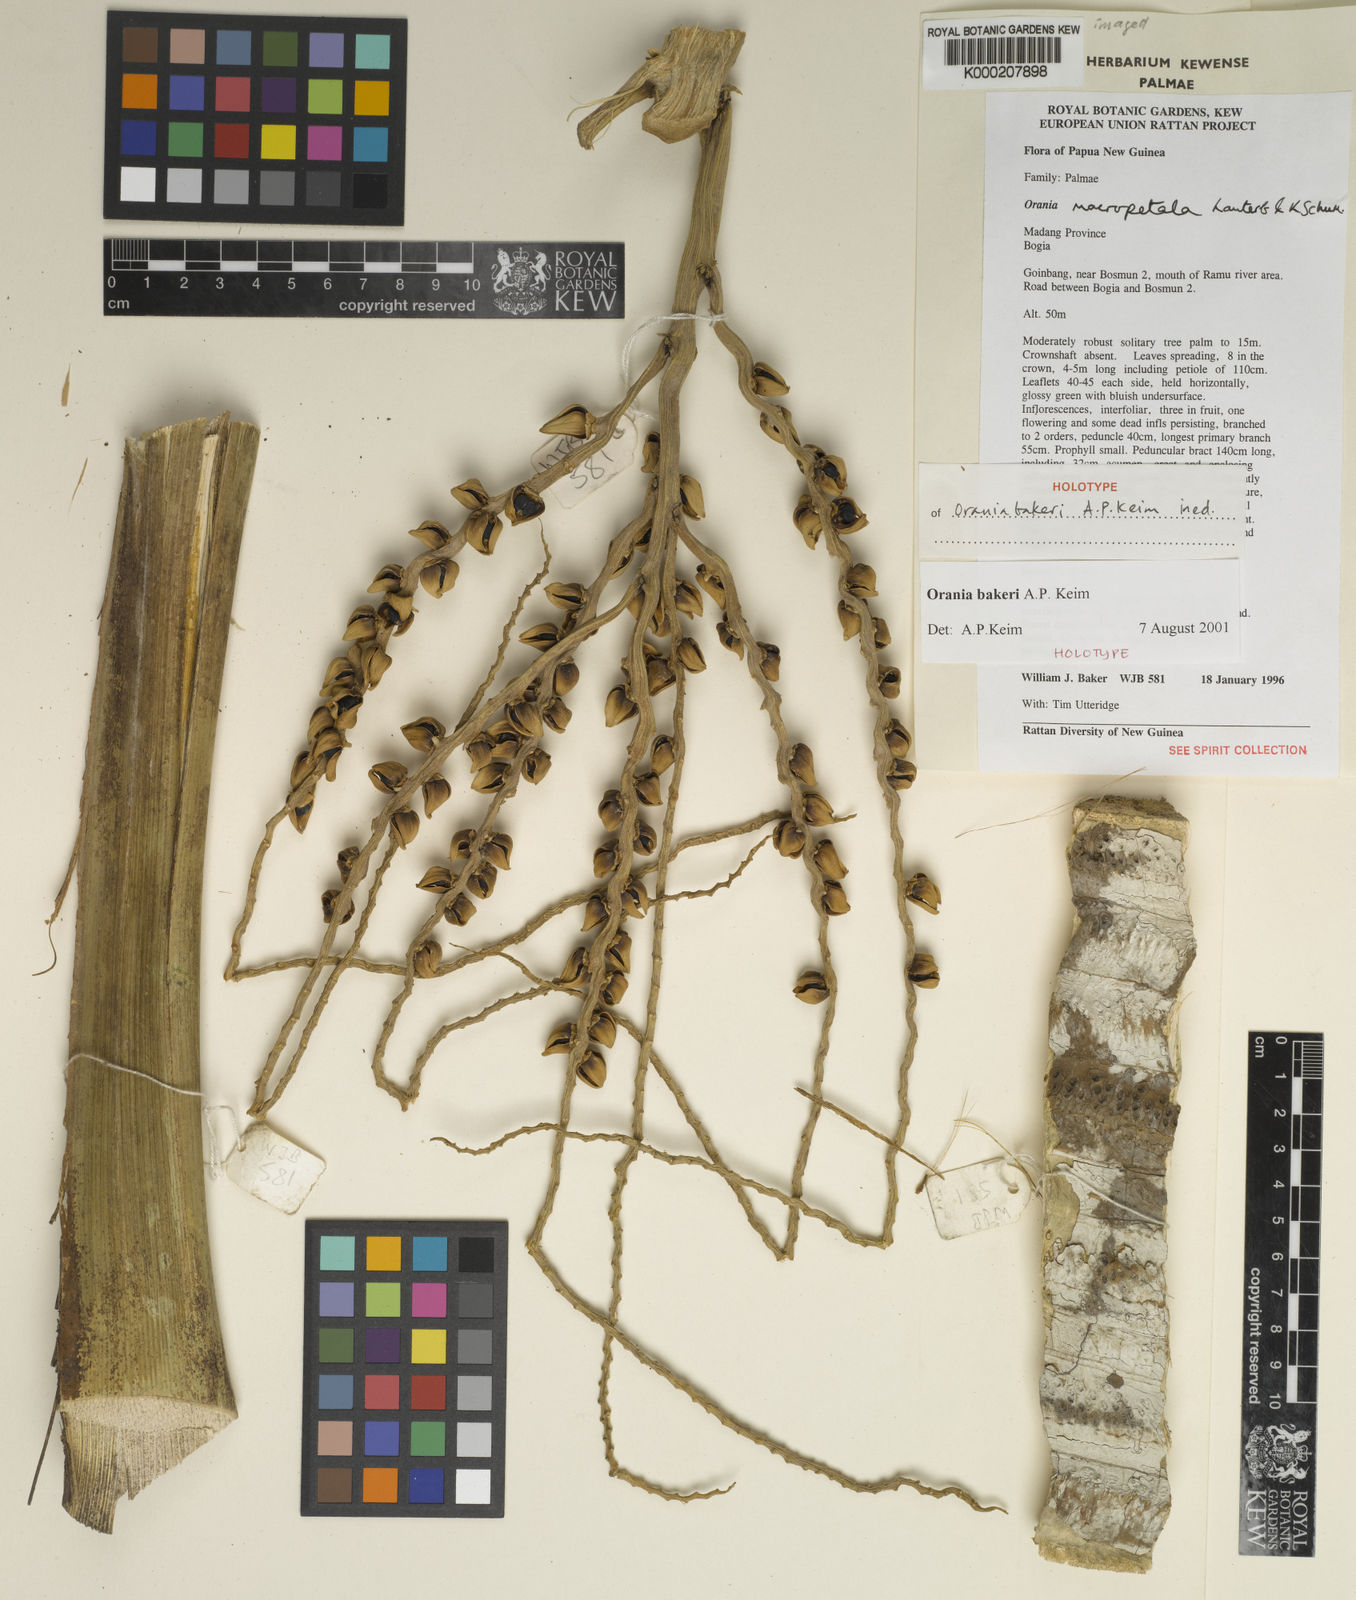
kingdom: Plantae
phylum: Tracheophyta
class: Liliopsida
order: Arecales
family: Arecaceae
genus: Orania
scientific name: Orania bakeri
